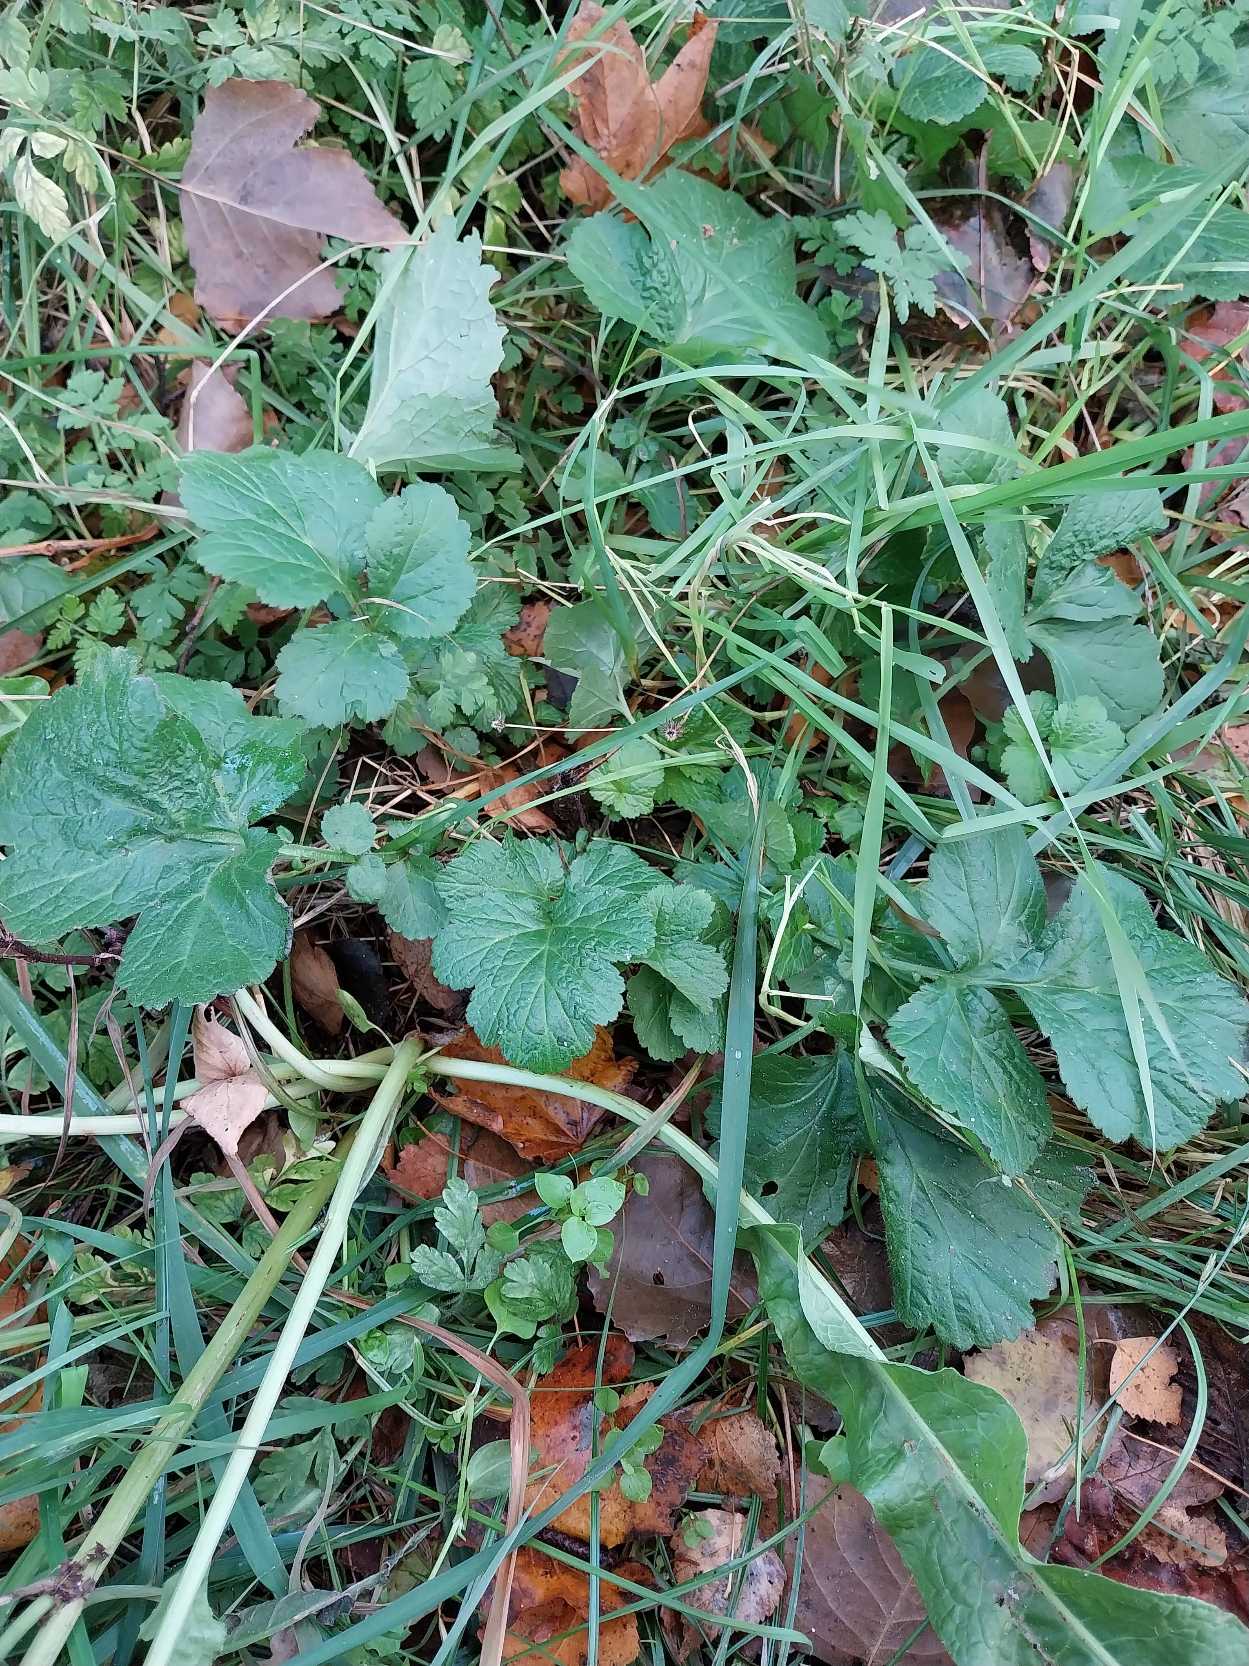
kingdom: Plantae
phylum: Tracheophyta
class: Magnoliopsida
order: Rosales
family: Rosaceae
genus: Geum
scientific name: Geum urbanum
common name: Feber-nellikerod
